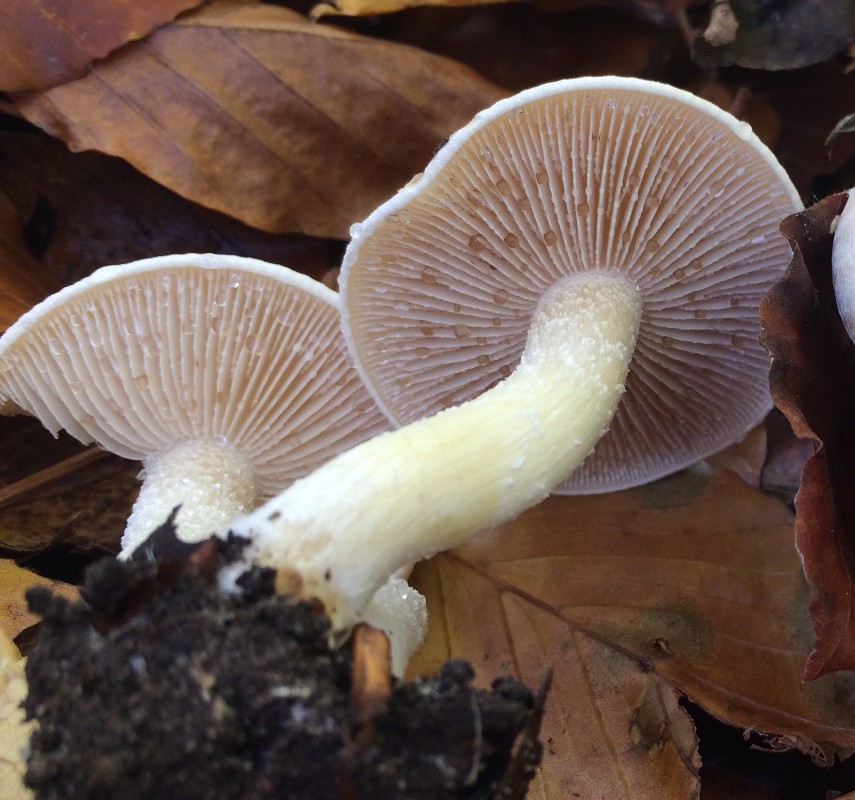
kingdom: Fungi
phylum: Basidiomycota
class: Agaricomycetes
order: Agaricales
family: Hymenogastraceae
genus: Hebeloma
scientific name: Hebeloma crustuliniforme
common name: almindelig tåreblad
